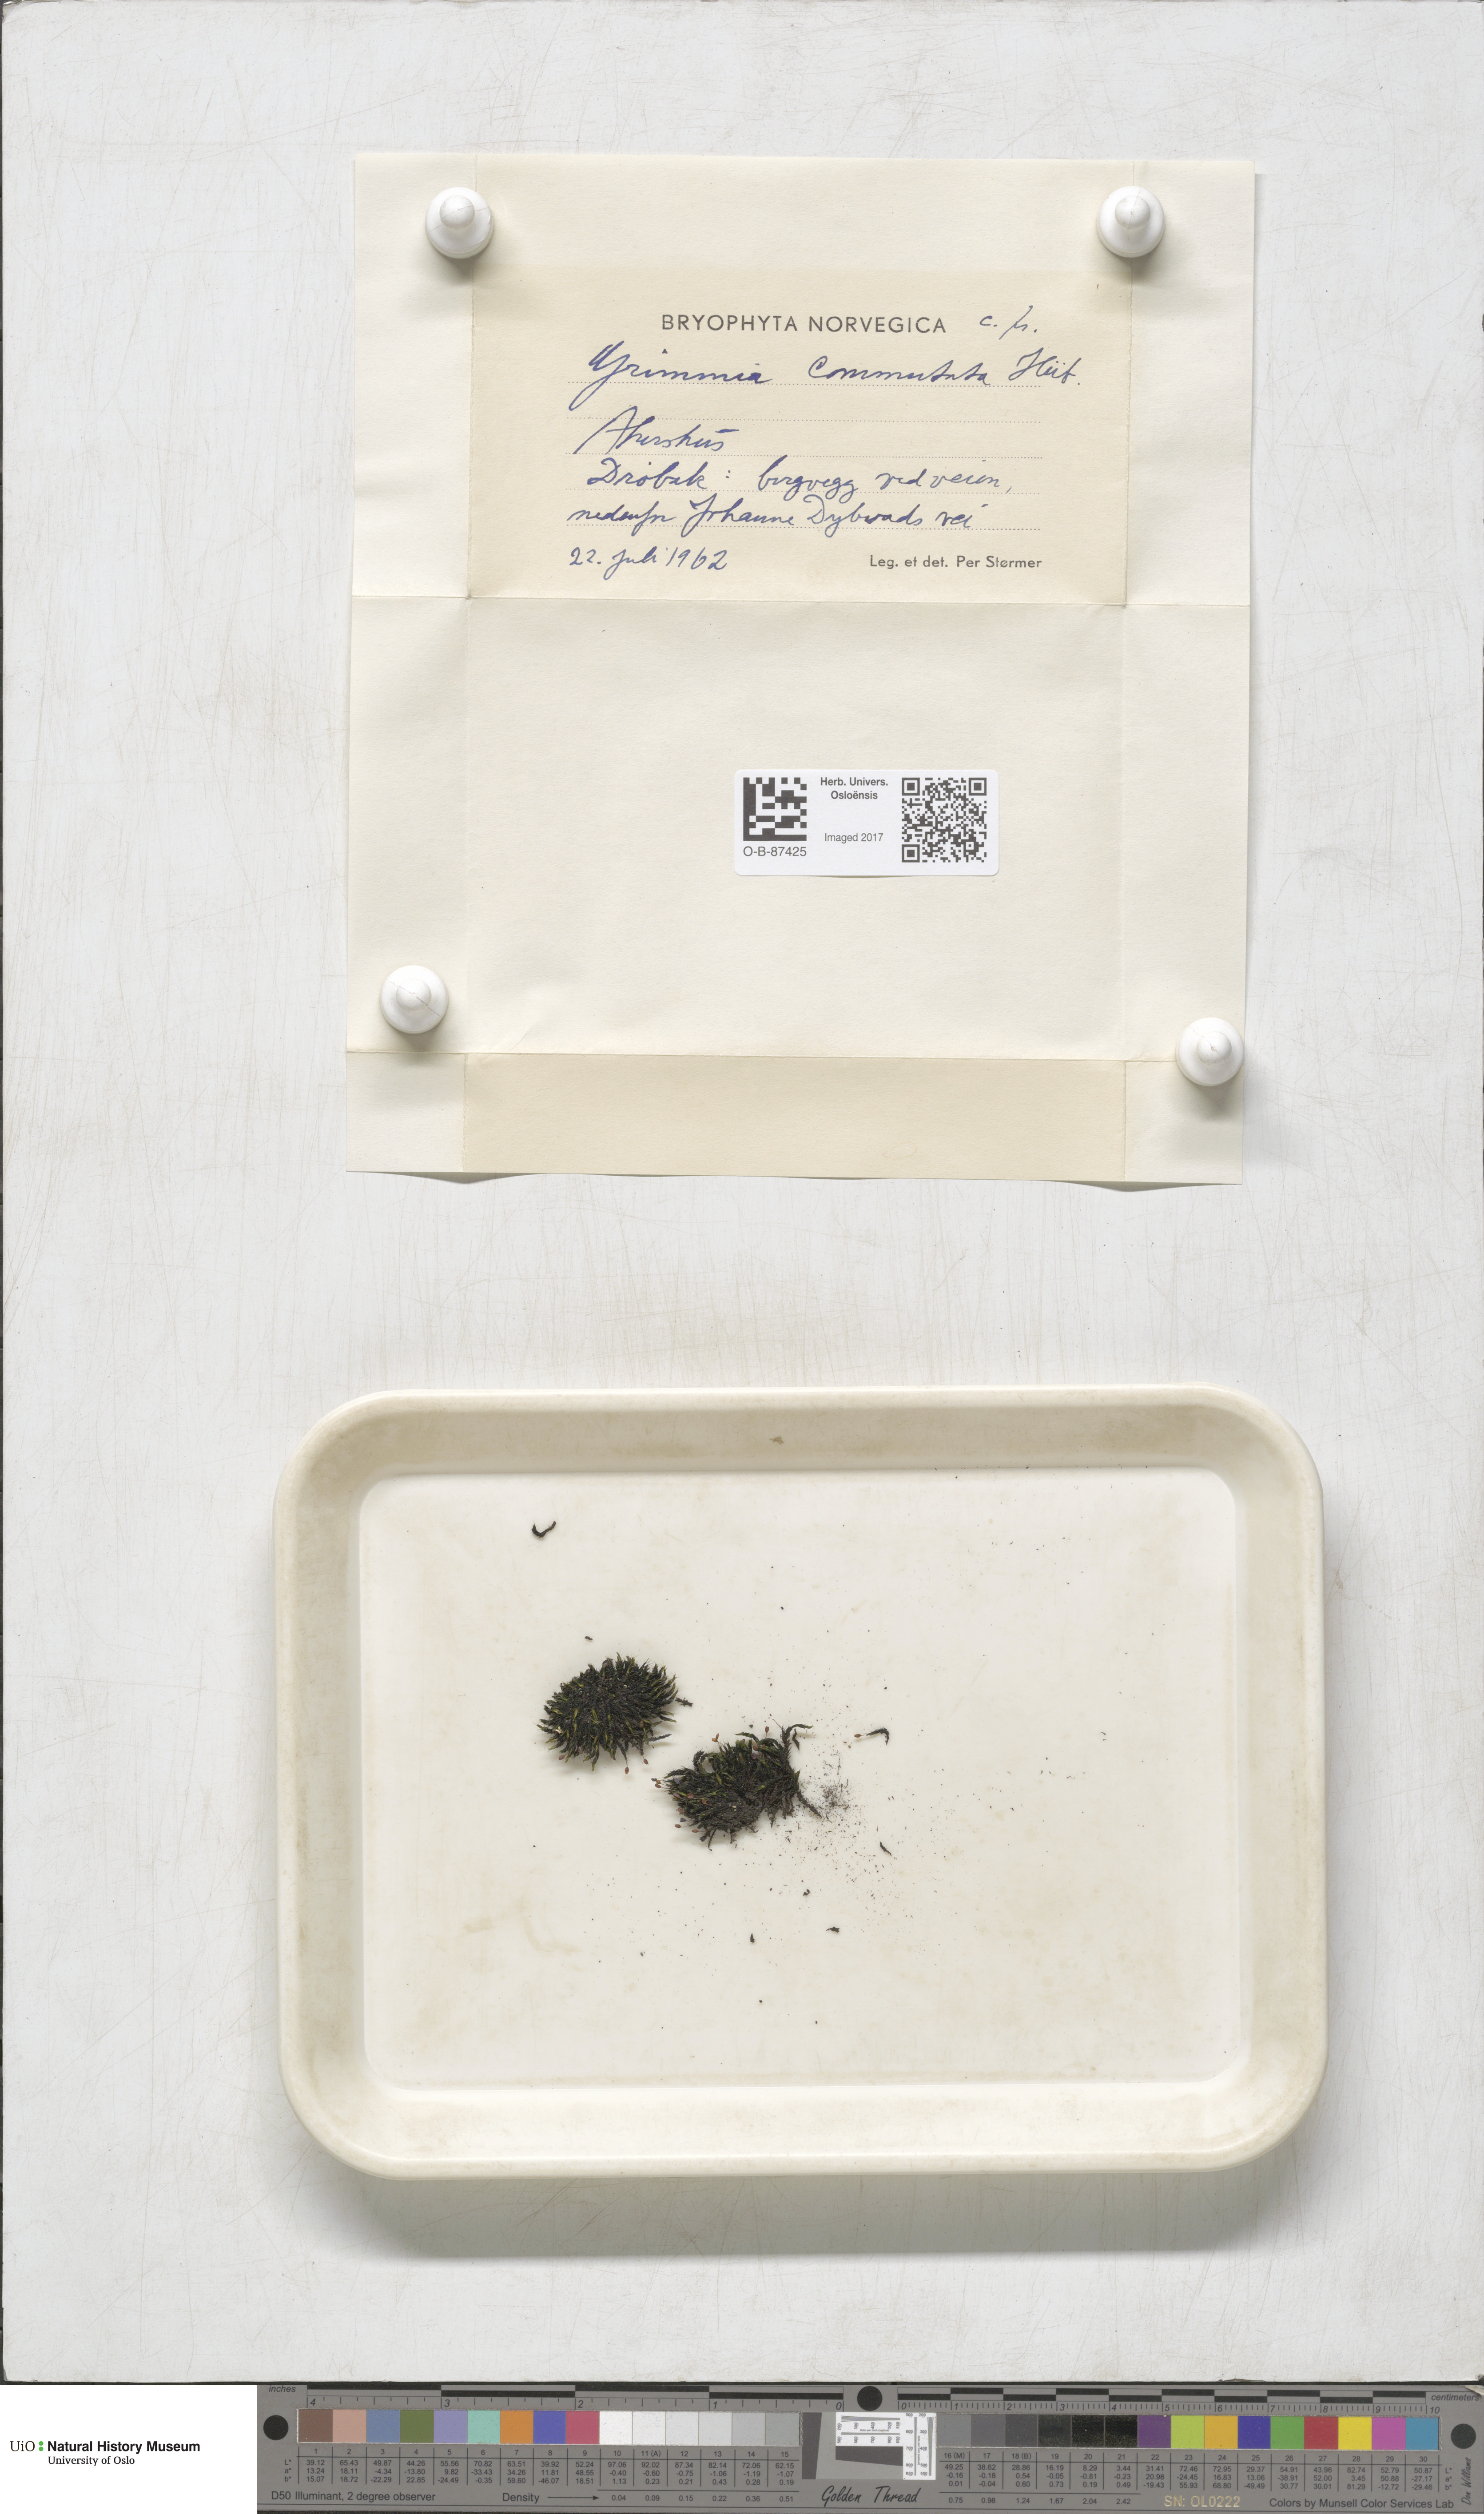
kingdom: Plantae
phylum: Bryophyta
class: Bryopsida
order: Grimmiales
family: Grimmiaceae
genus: Grimmia
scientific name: Grimmia ovalis
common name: Oval grimmia
